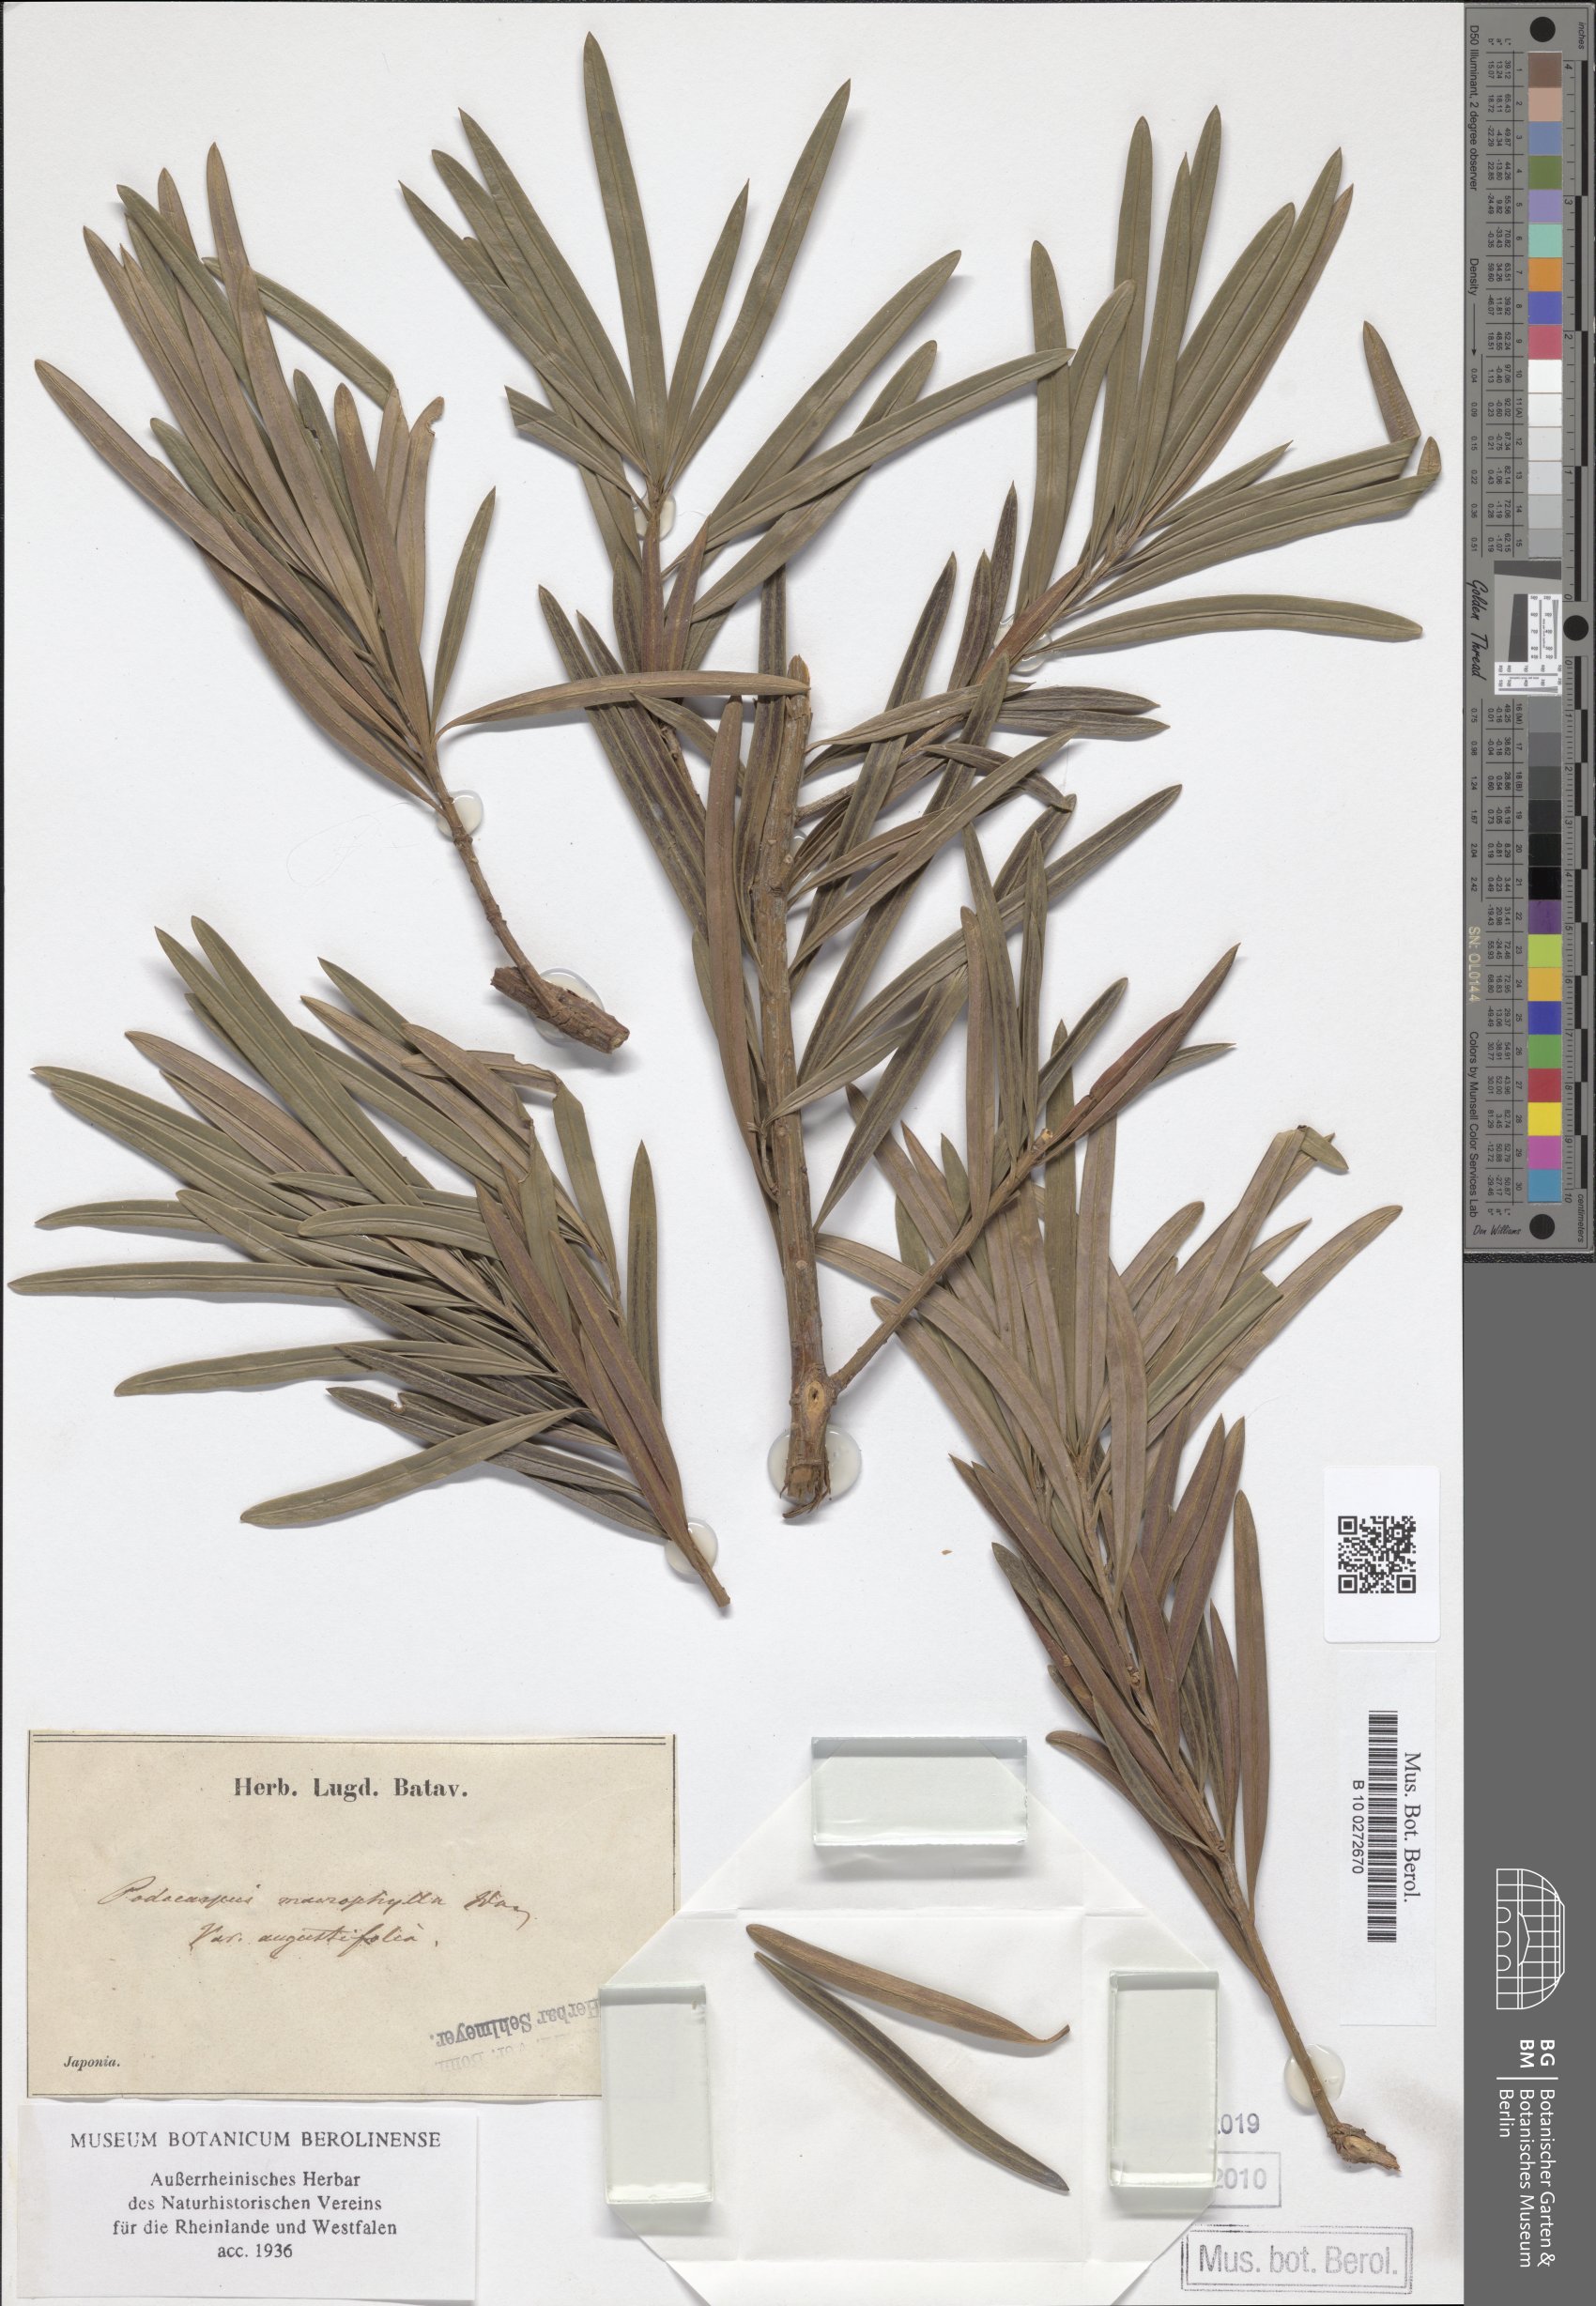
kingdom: Plantae
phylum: Tracheophyta
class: Pinopsida
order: Pinales
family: Podocarpaceae
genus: Podocarpus
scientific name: Podocarpus macrophyllus
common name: Japanese yew
